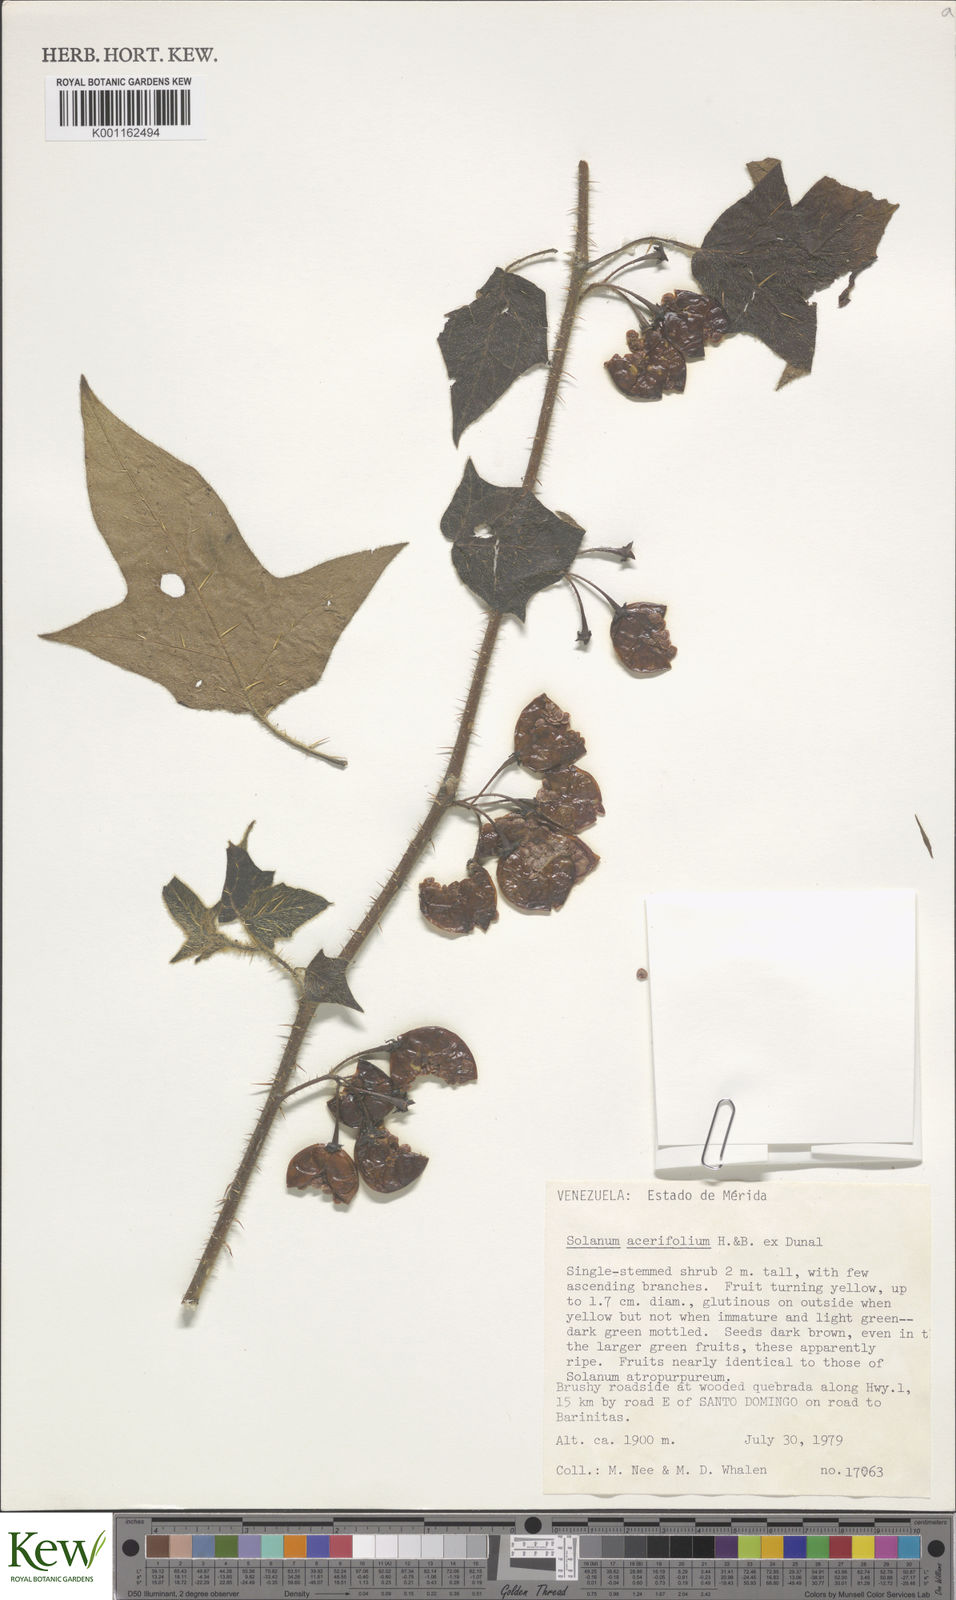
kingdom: Plantae
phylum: Tracheophyta
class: Magnoliopsida
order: Solanales
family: Solanaceae
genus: Solanum
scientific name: Solanum acerifolium
